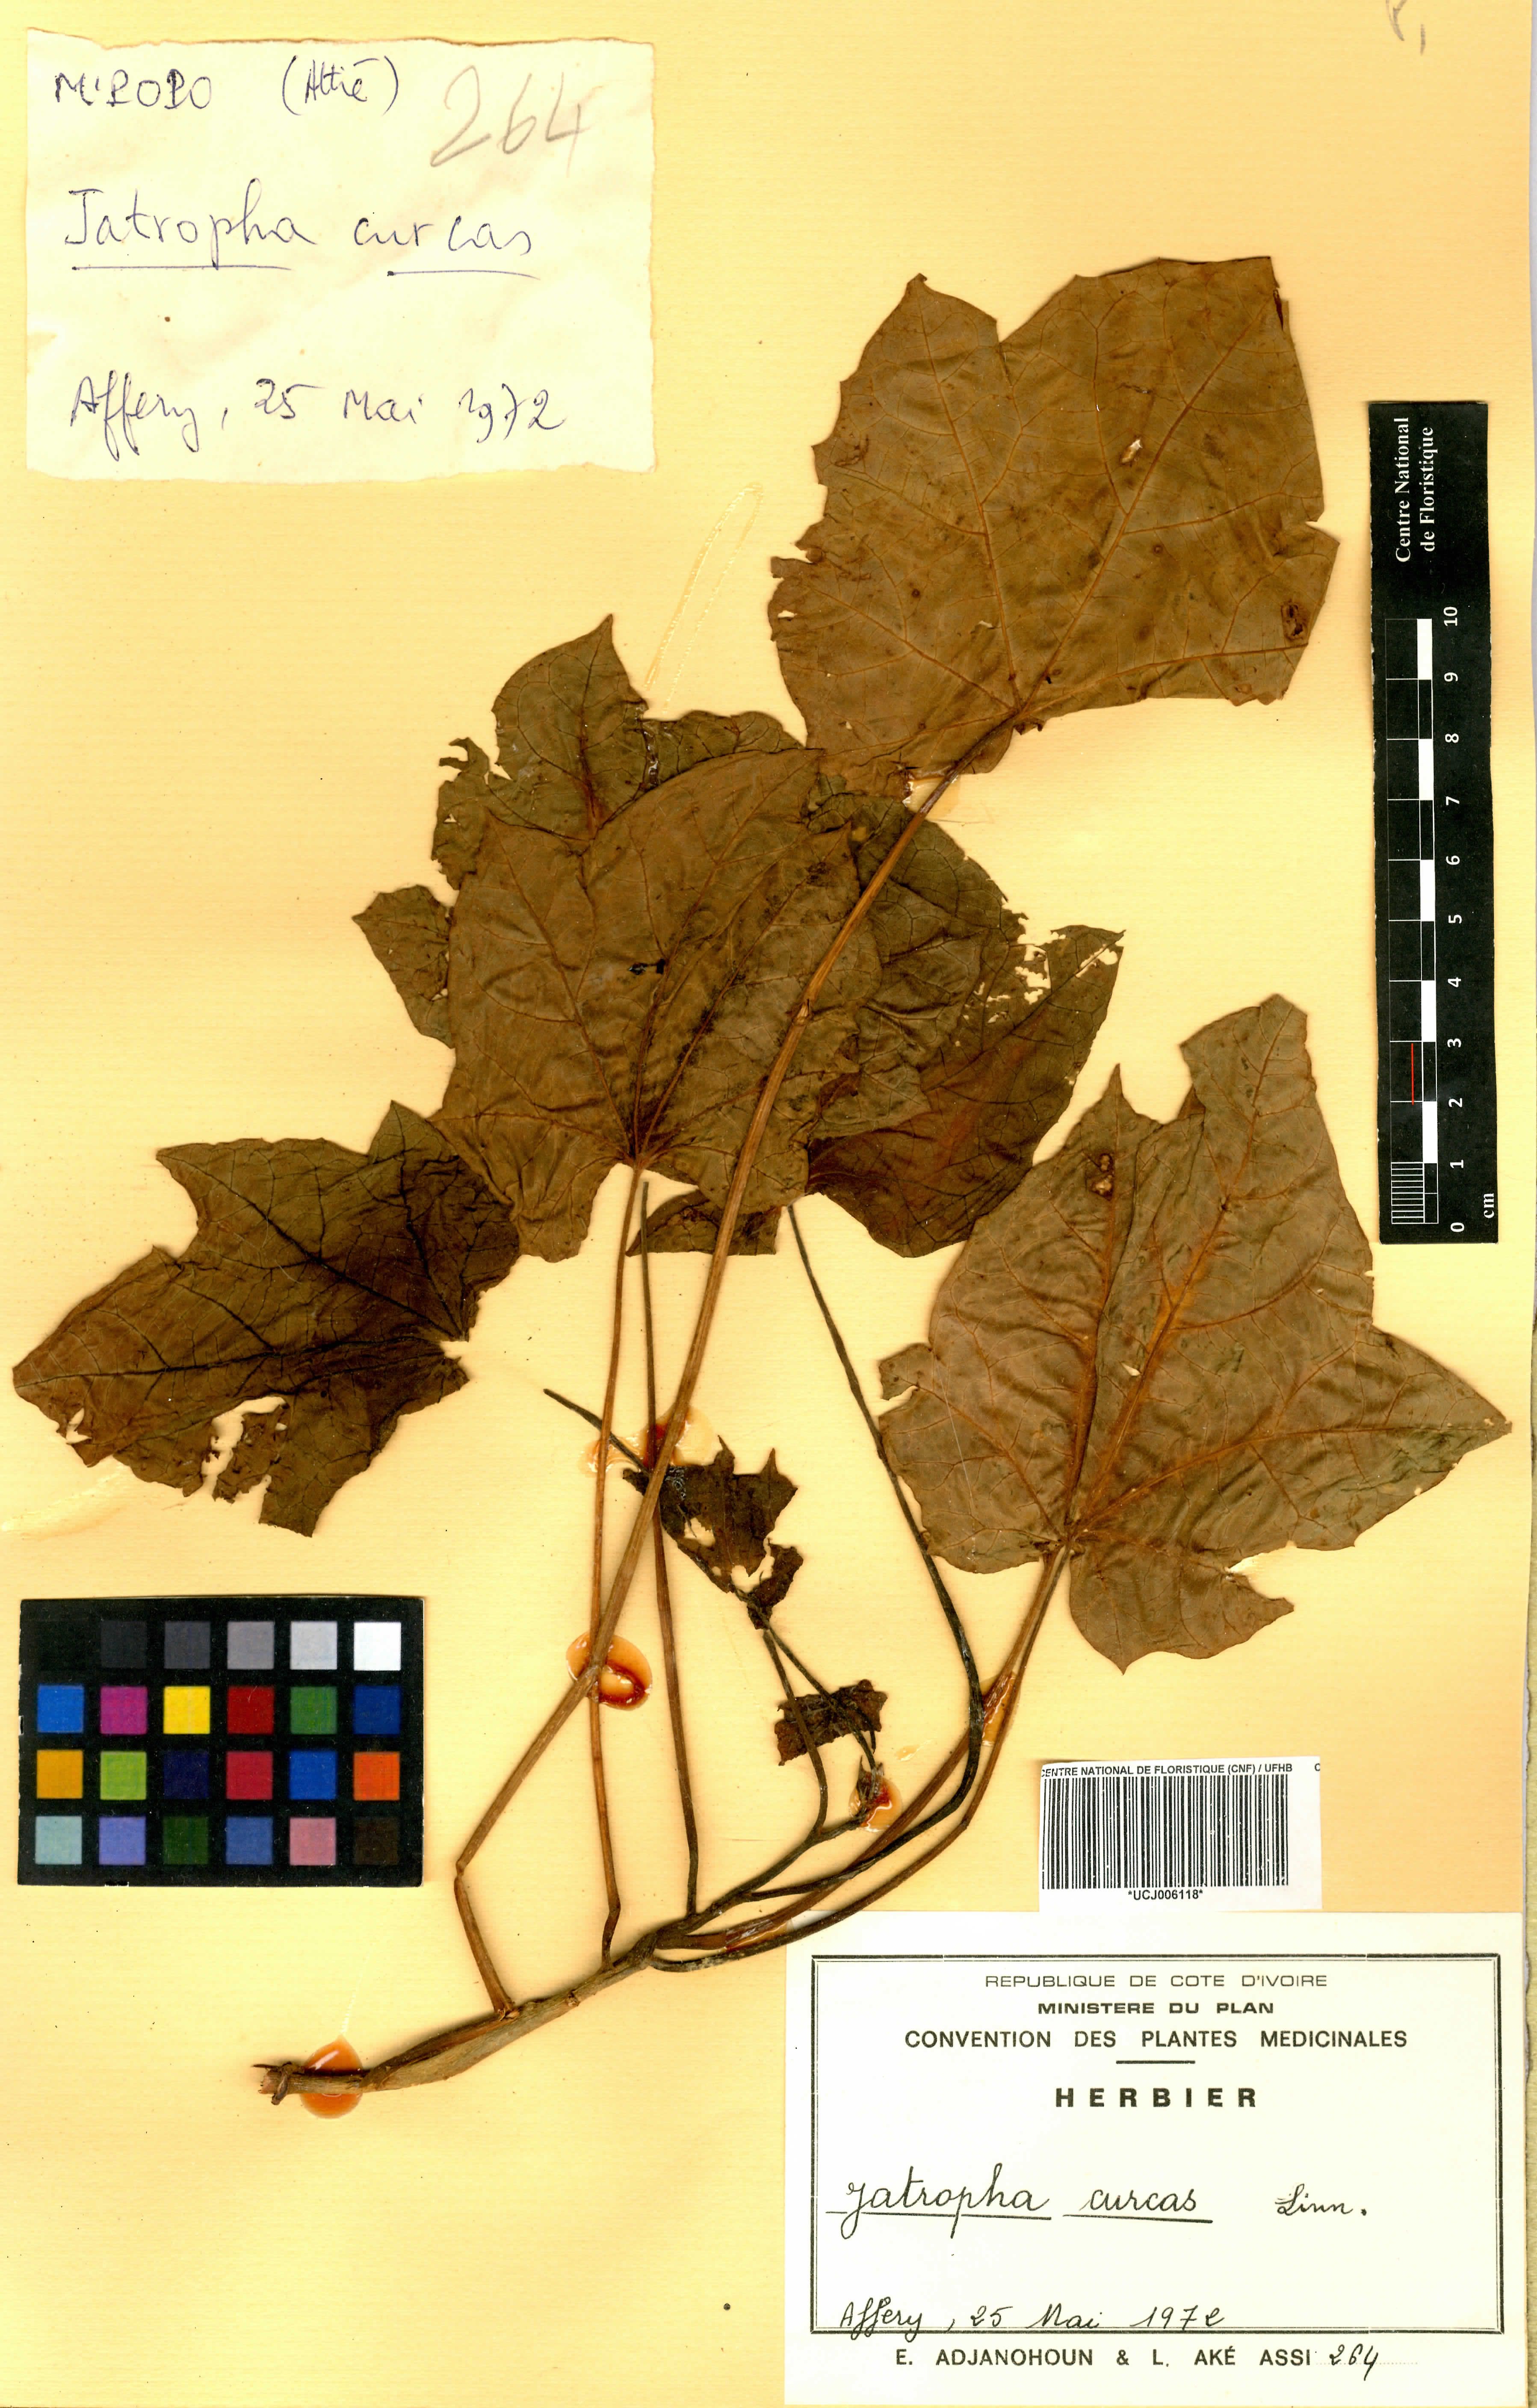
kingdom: Plantae
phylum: Tracheophyta
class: Magnoliopsida
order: Malpighiales
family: Euphorbiaceae
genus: Jatropha
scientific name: Jatropha curcas
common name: Barbados nut
